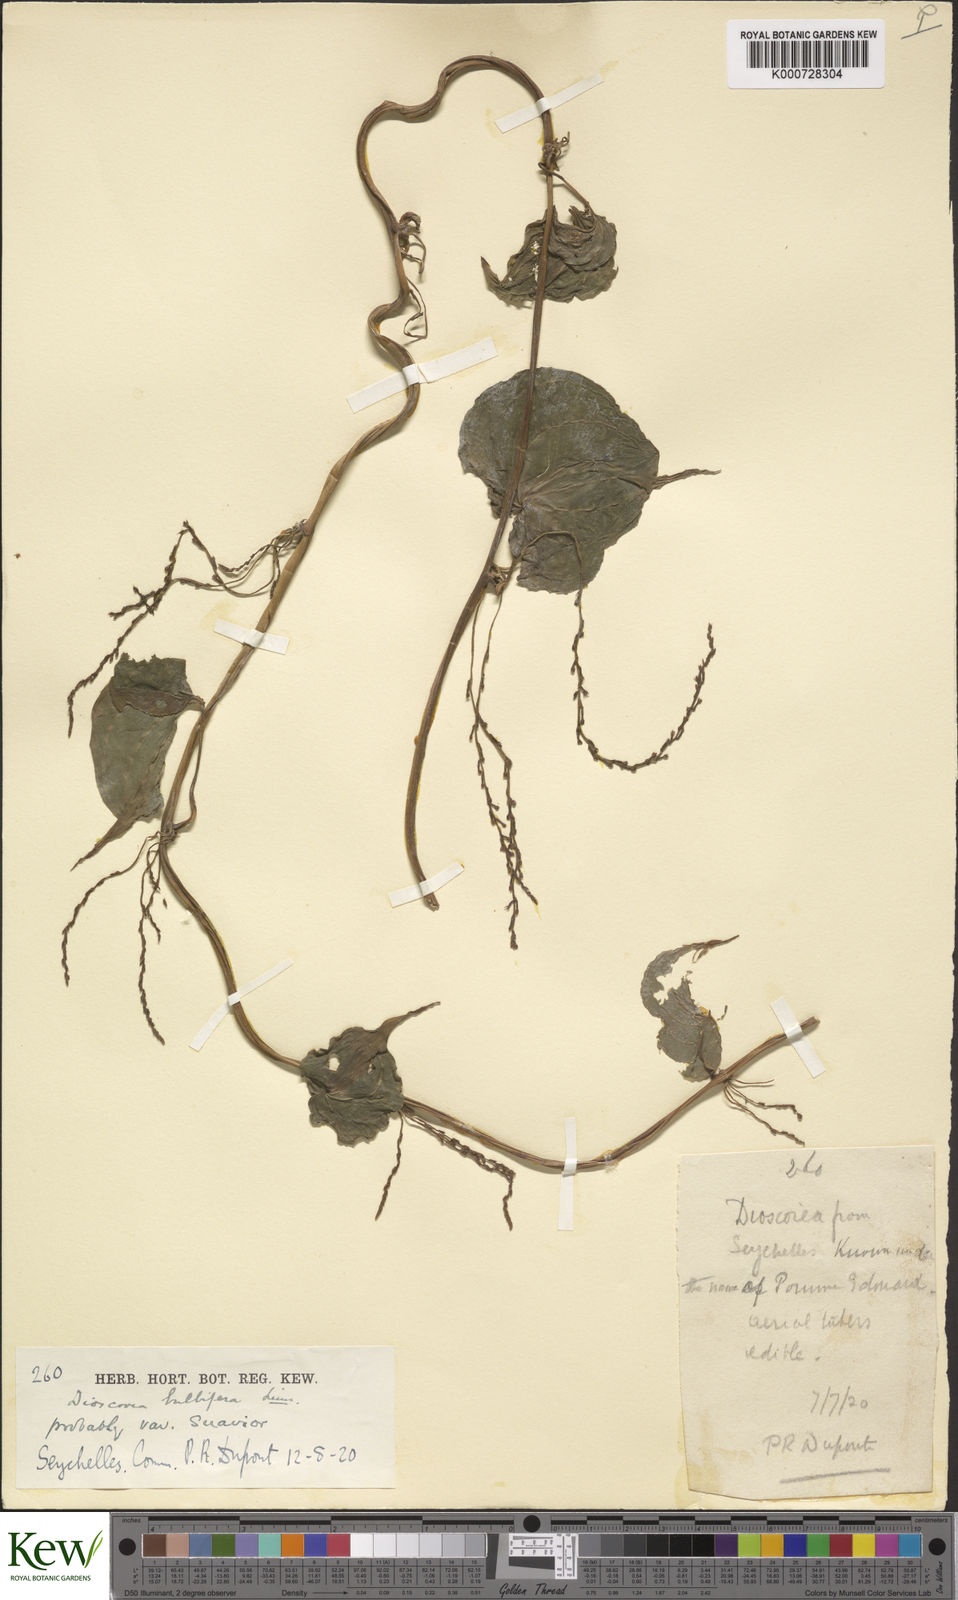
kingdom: Plantae
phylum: Tracheophyta
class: Liliopsida
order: Dioscoreales
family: Dioscoreaceae
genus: Dioscorea
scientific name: Dioscorea bulbifera
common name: Air yam
